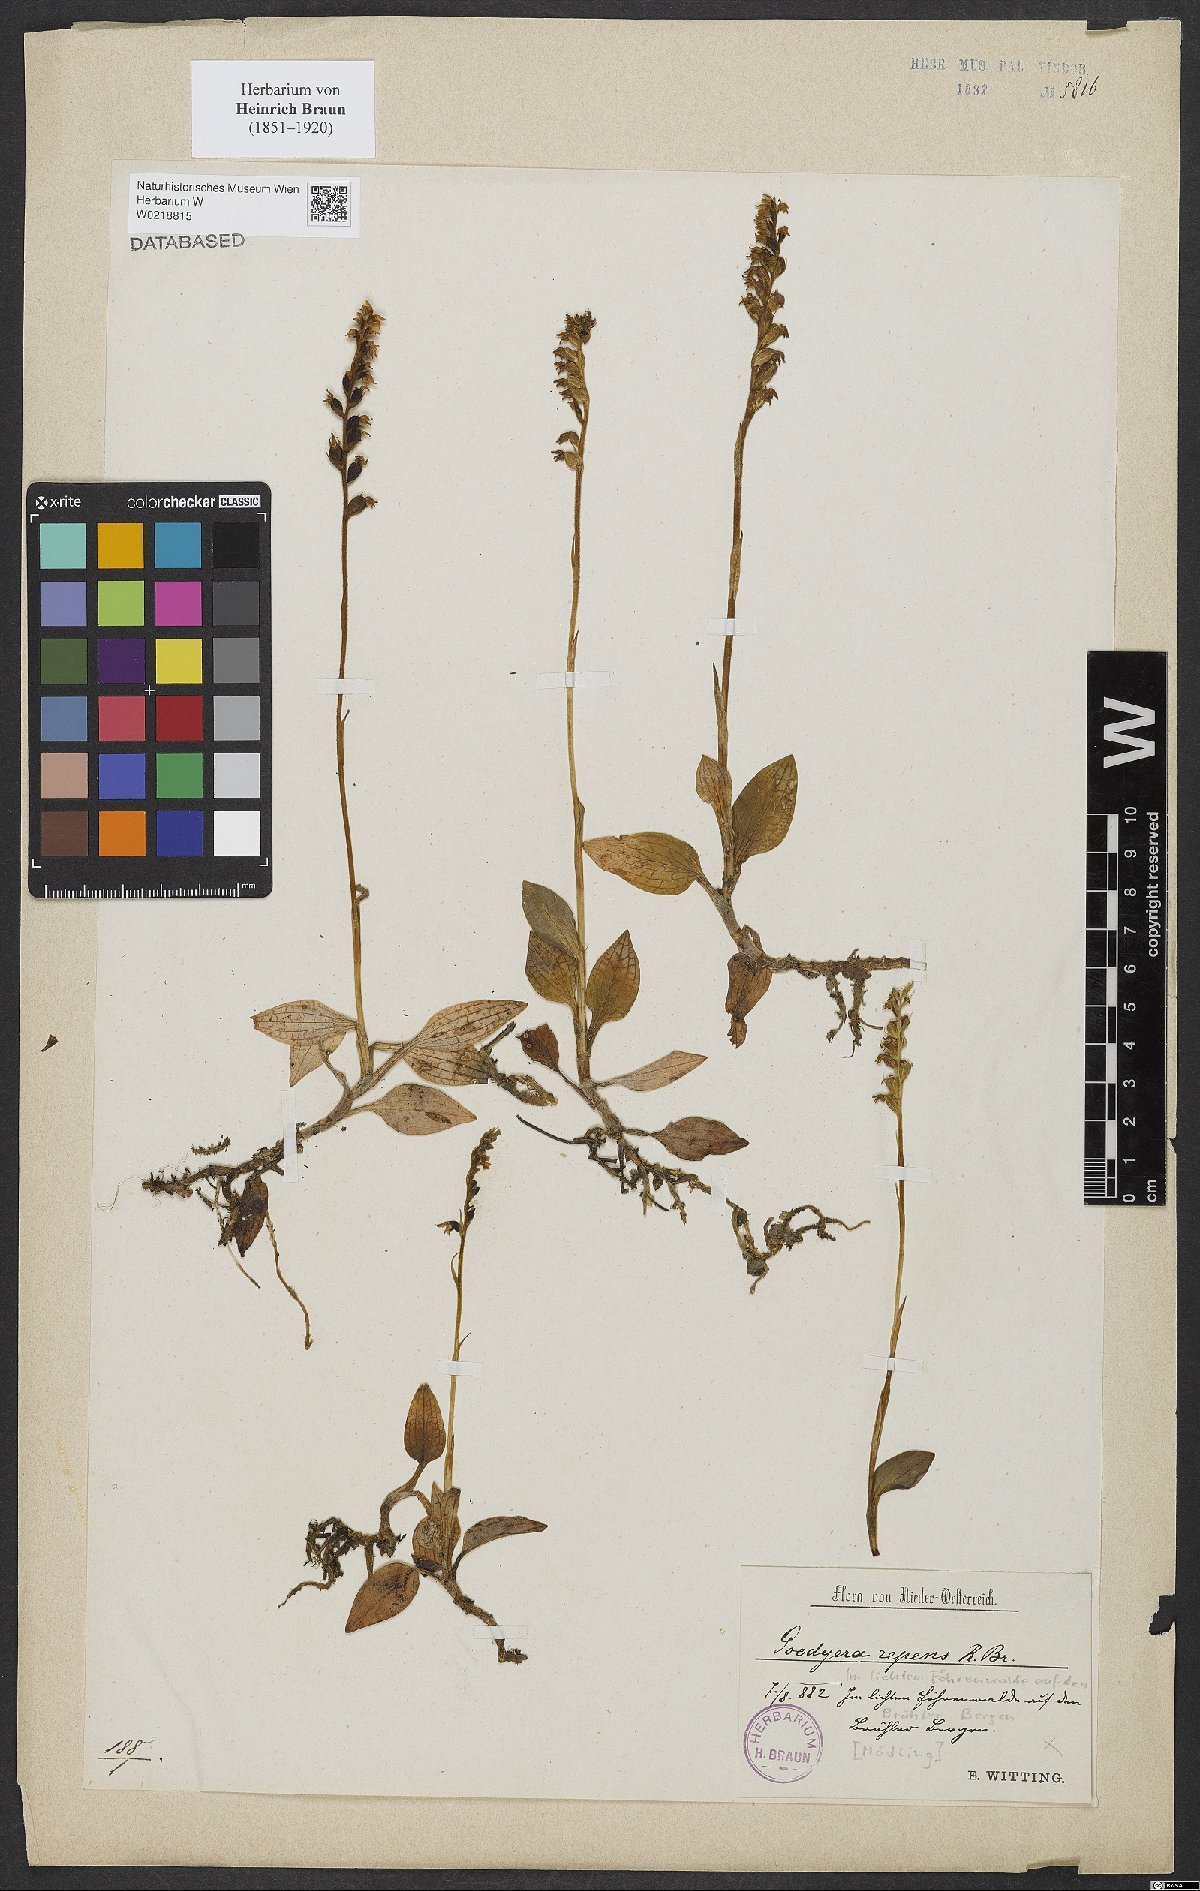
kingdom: Plantae
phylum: Tracheophyta
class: Liliopsida
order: Asparagales
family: Orchidaceae
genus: Goodyera
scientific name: Goodyera repens
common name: Creeping lady's-tresses
